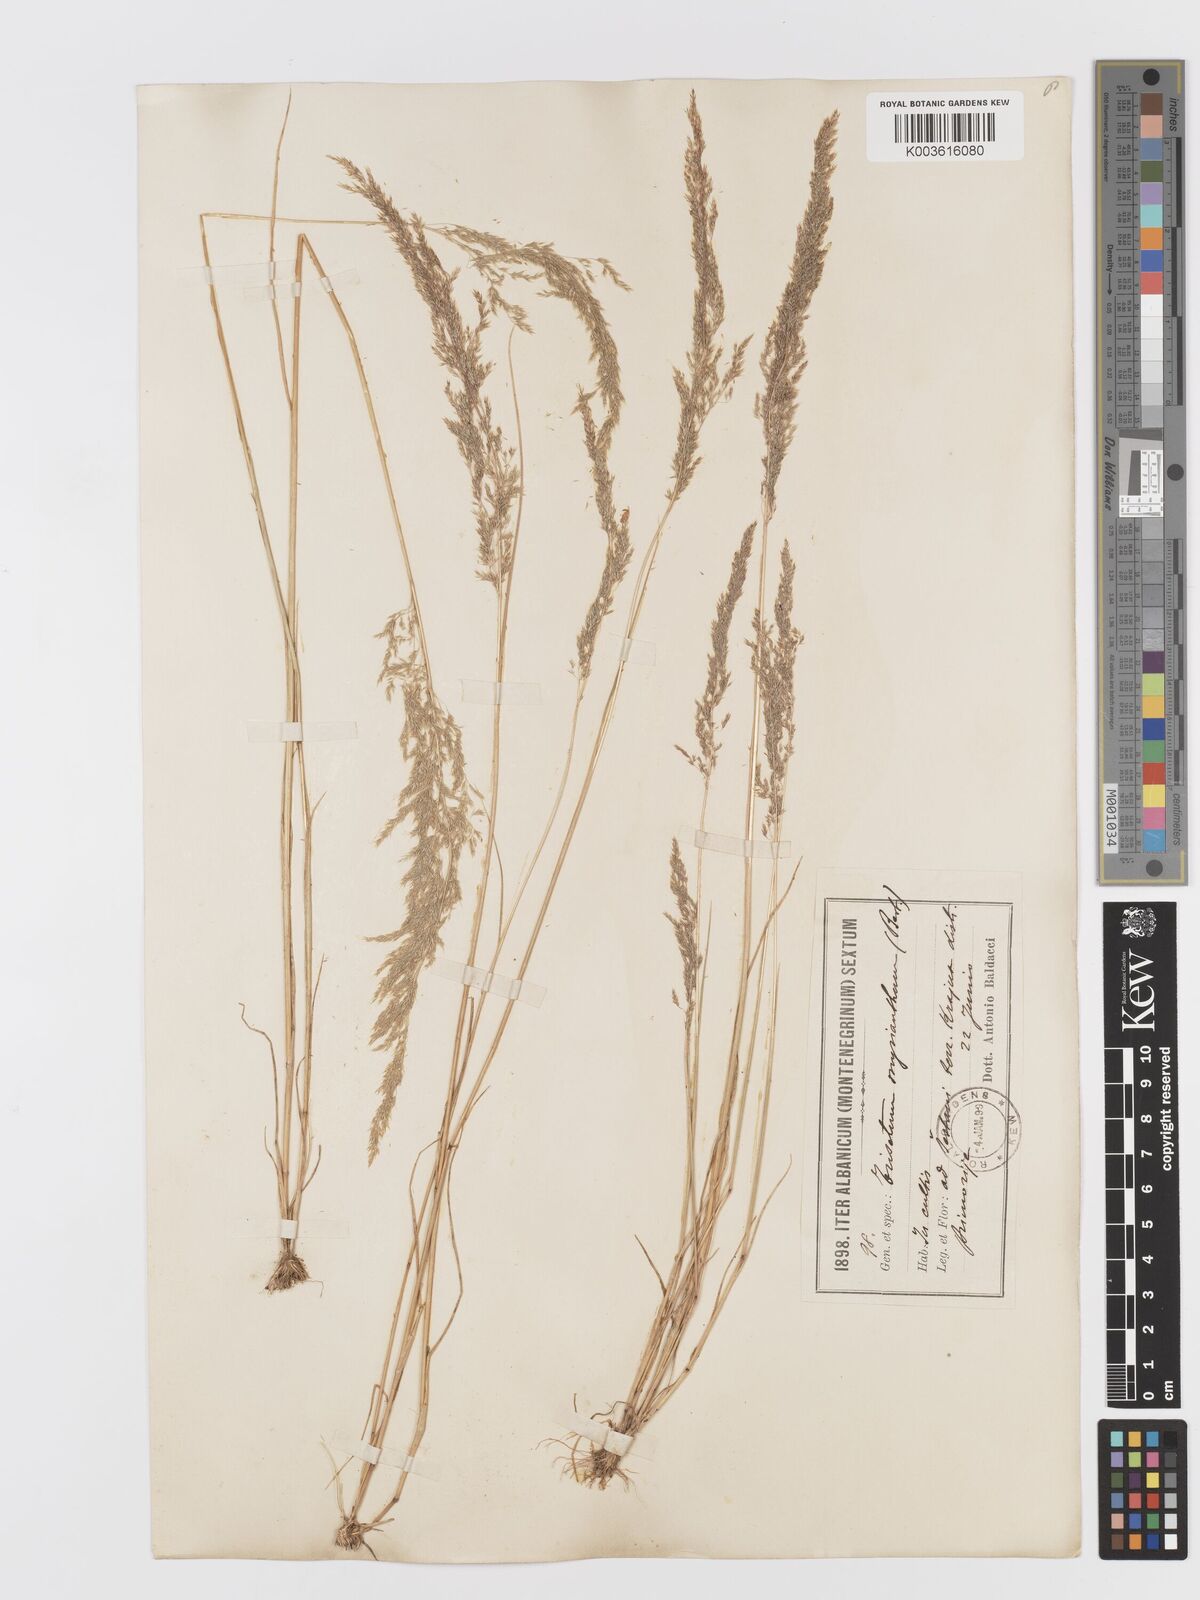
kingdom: Plantae
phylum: Tracheophyta
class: Liliopsida
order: Poales
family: Poaceae
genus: Parvotrisetum
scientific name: Parvotrisetum myrianthum
